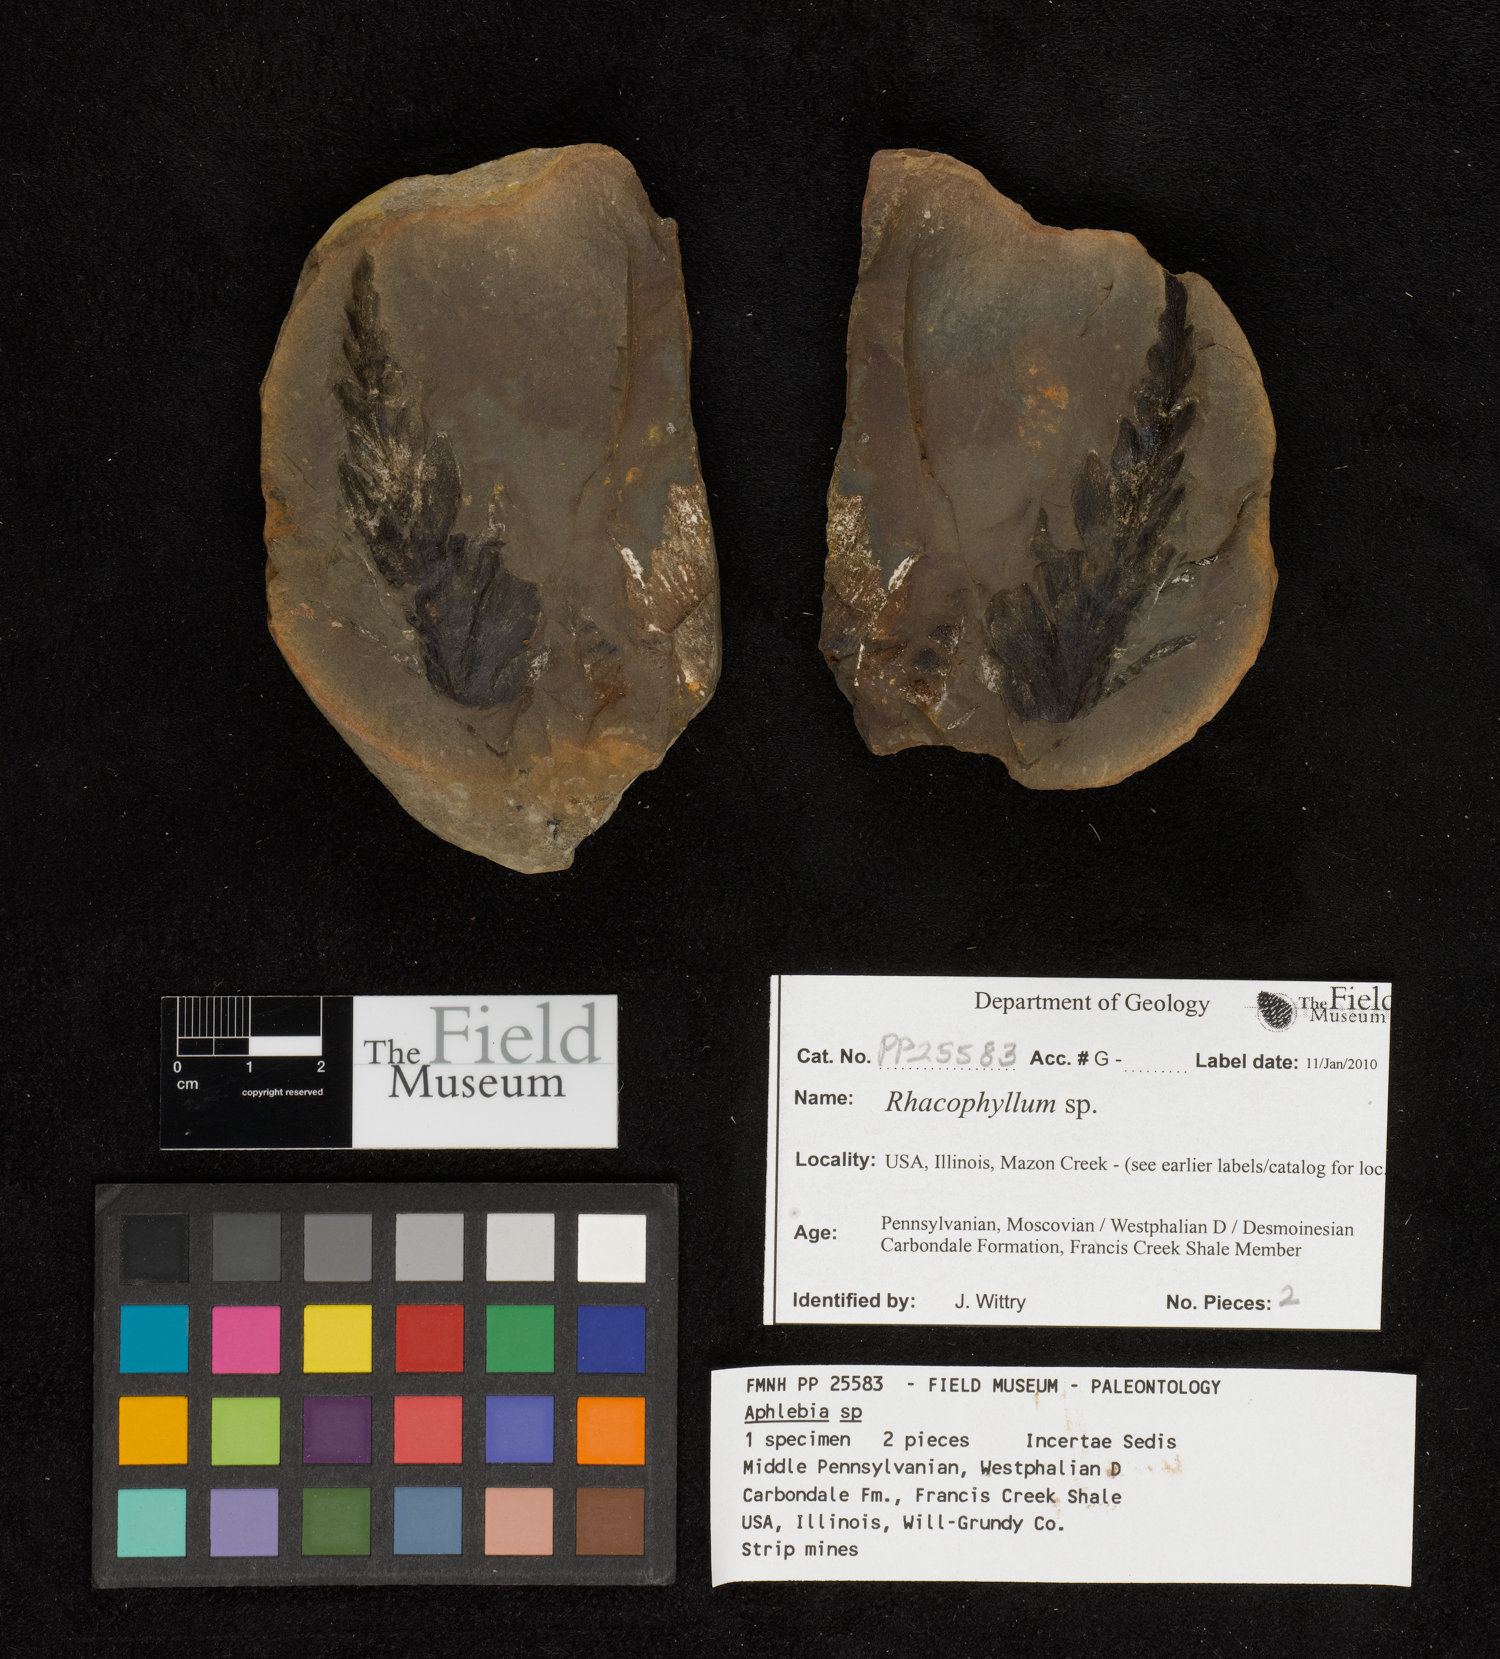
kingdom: Plantae
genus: Rhacophyllum
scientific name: Rhacophyllum
